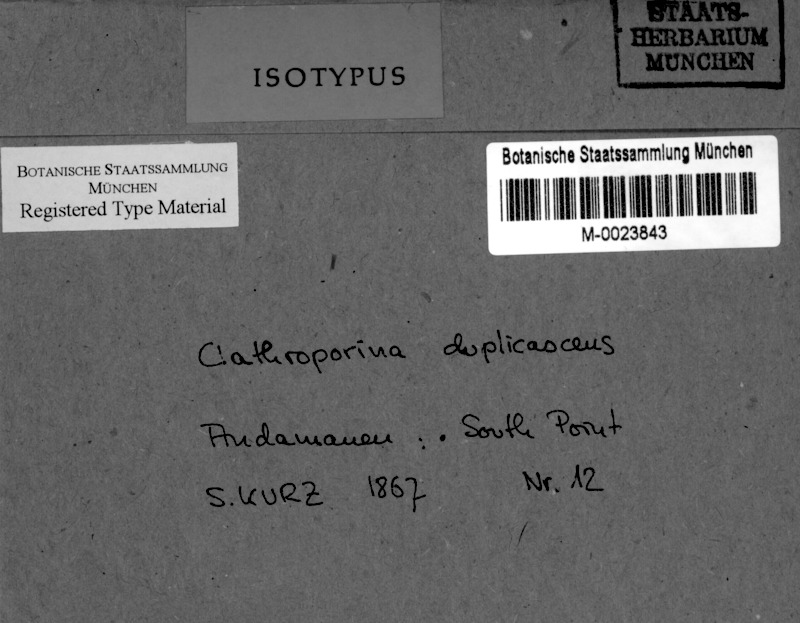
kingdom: Fungi
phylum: Ascomycota
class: Lecanoromycetes
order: Ostropales
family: Porinaceae
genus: Clathroporina
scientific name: Clathroporina duplicascens
